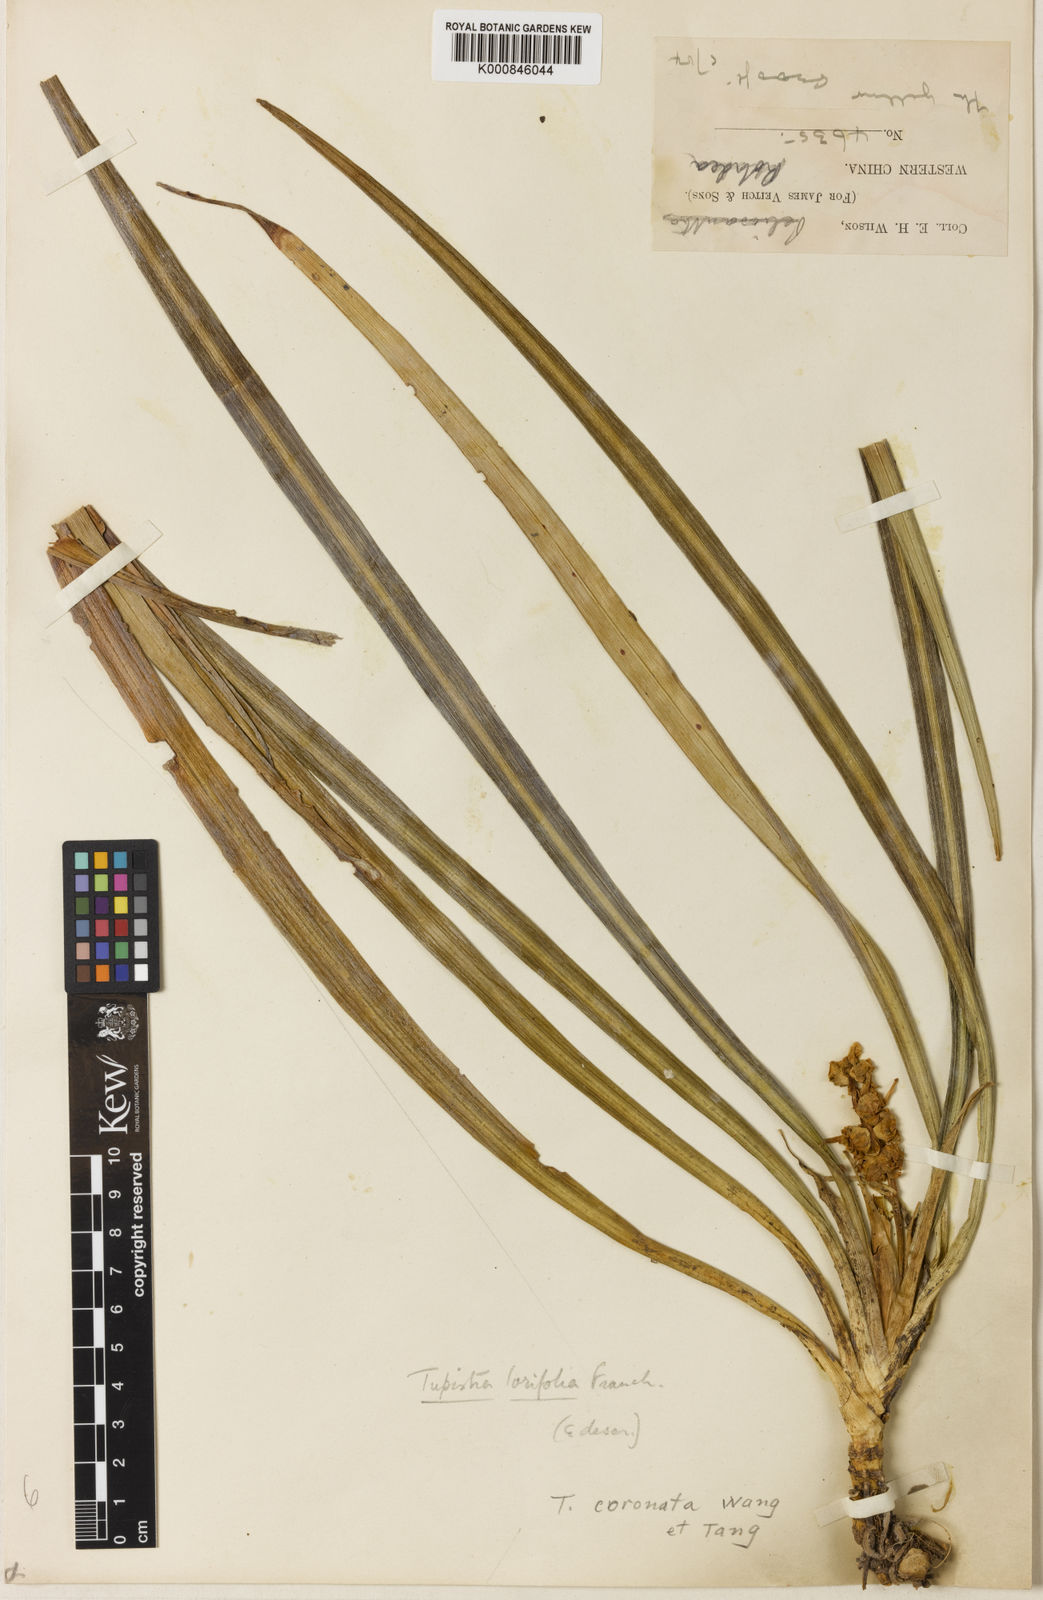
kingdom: Plantae
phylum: Tracheophyta
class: Liliopsida
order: Asparagales
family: Asparagaceae
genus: Tupistra
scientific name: Tupistra
